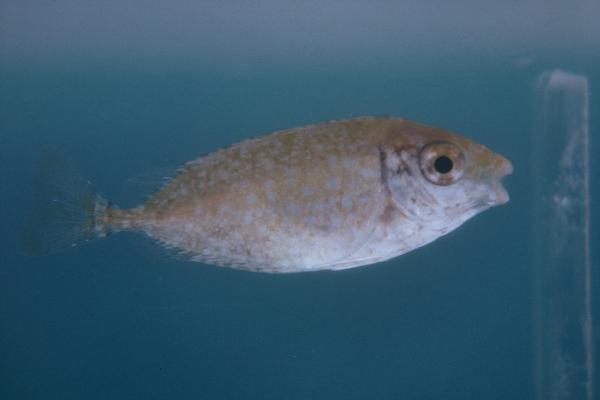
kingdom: Animalia
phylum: Chordata
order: Perciformes
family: Siganidae
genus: Siganus
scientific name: Siganus rivulatus
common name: Marbled spinefoot
